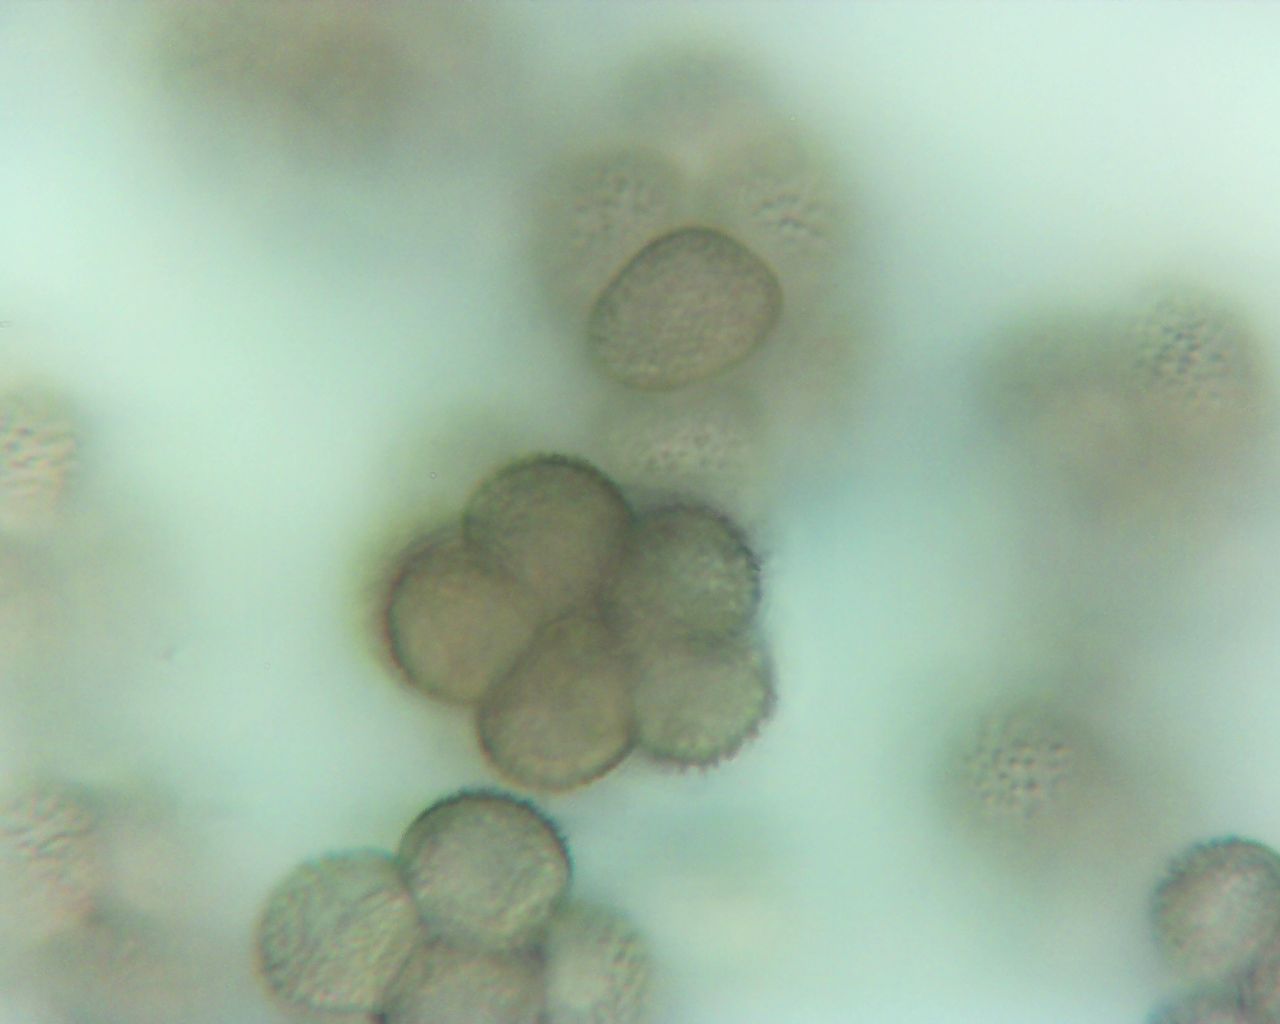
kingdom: Protozoa
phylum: Mycetozoa
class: Myxomycetes
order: Cribrariales
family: Tubiferaceae
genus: Licaethalium
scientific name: Licaethalium olivaceum
